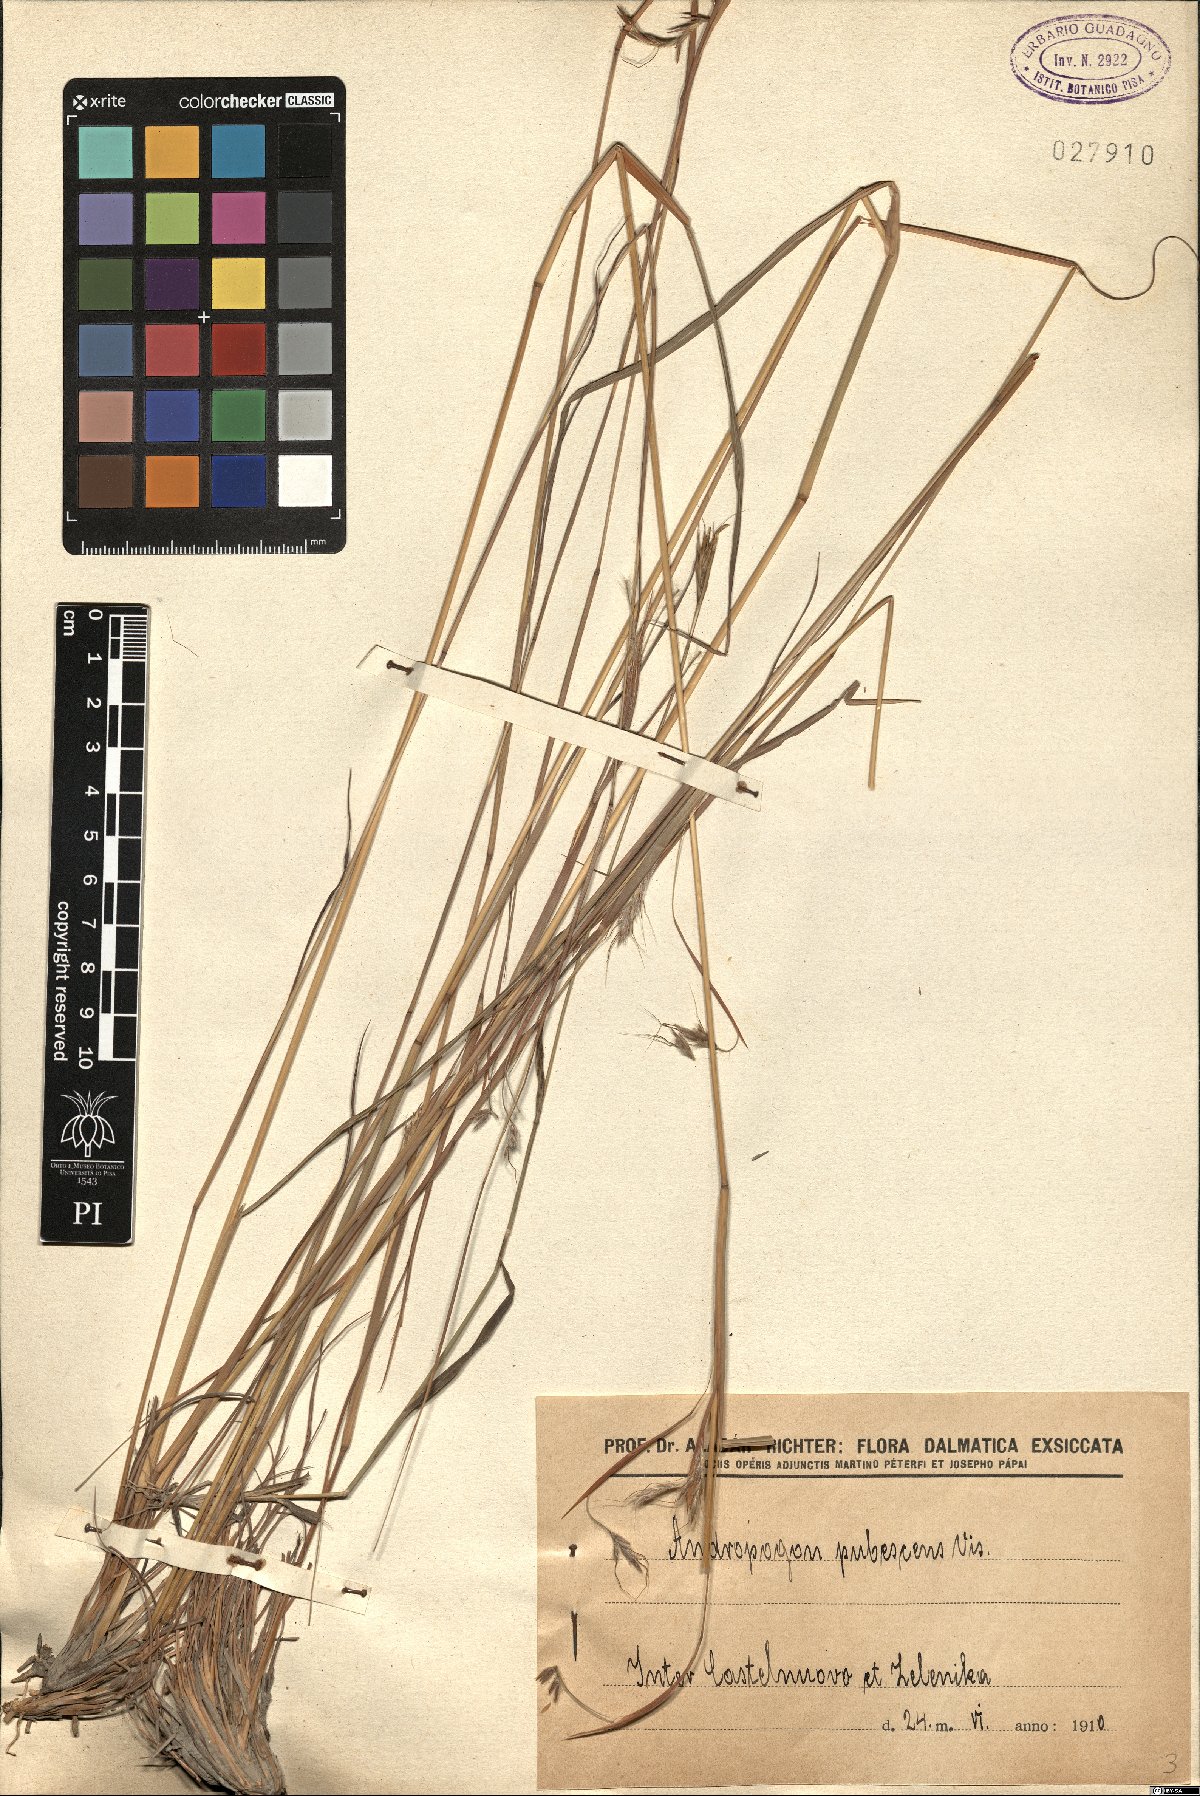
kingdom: Plantae
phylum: Tracheophyta
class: Liliopsida
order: Poales
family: Poaceae
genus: Hyparrhenia
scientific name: Hyparrhenia hirta
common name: Thatching grass
